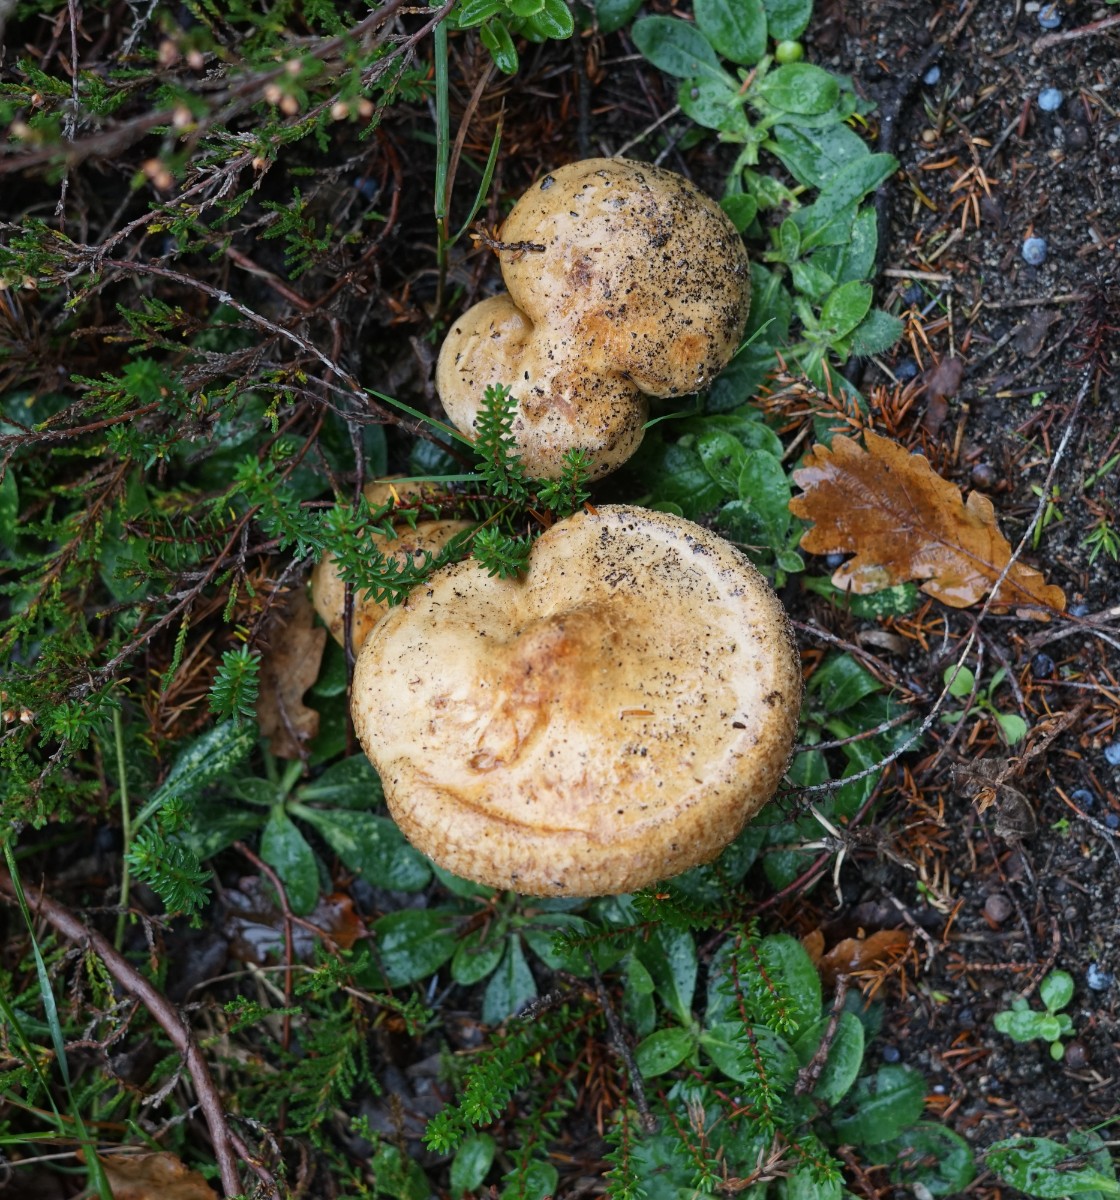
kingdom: Fungi
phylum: Basidiomycota
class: Agaricomycetes
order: Boletales
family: Paxillaceae
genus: Paxillus
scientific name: Paxillus involutus
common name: almindelig netbladhat
